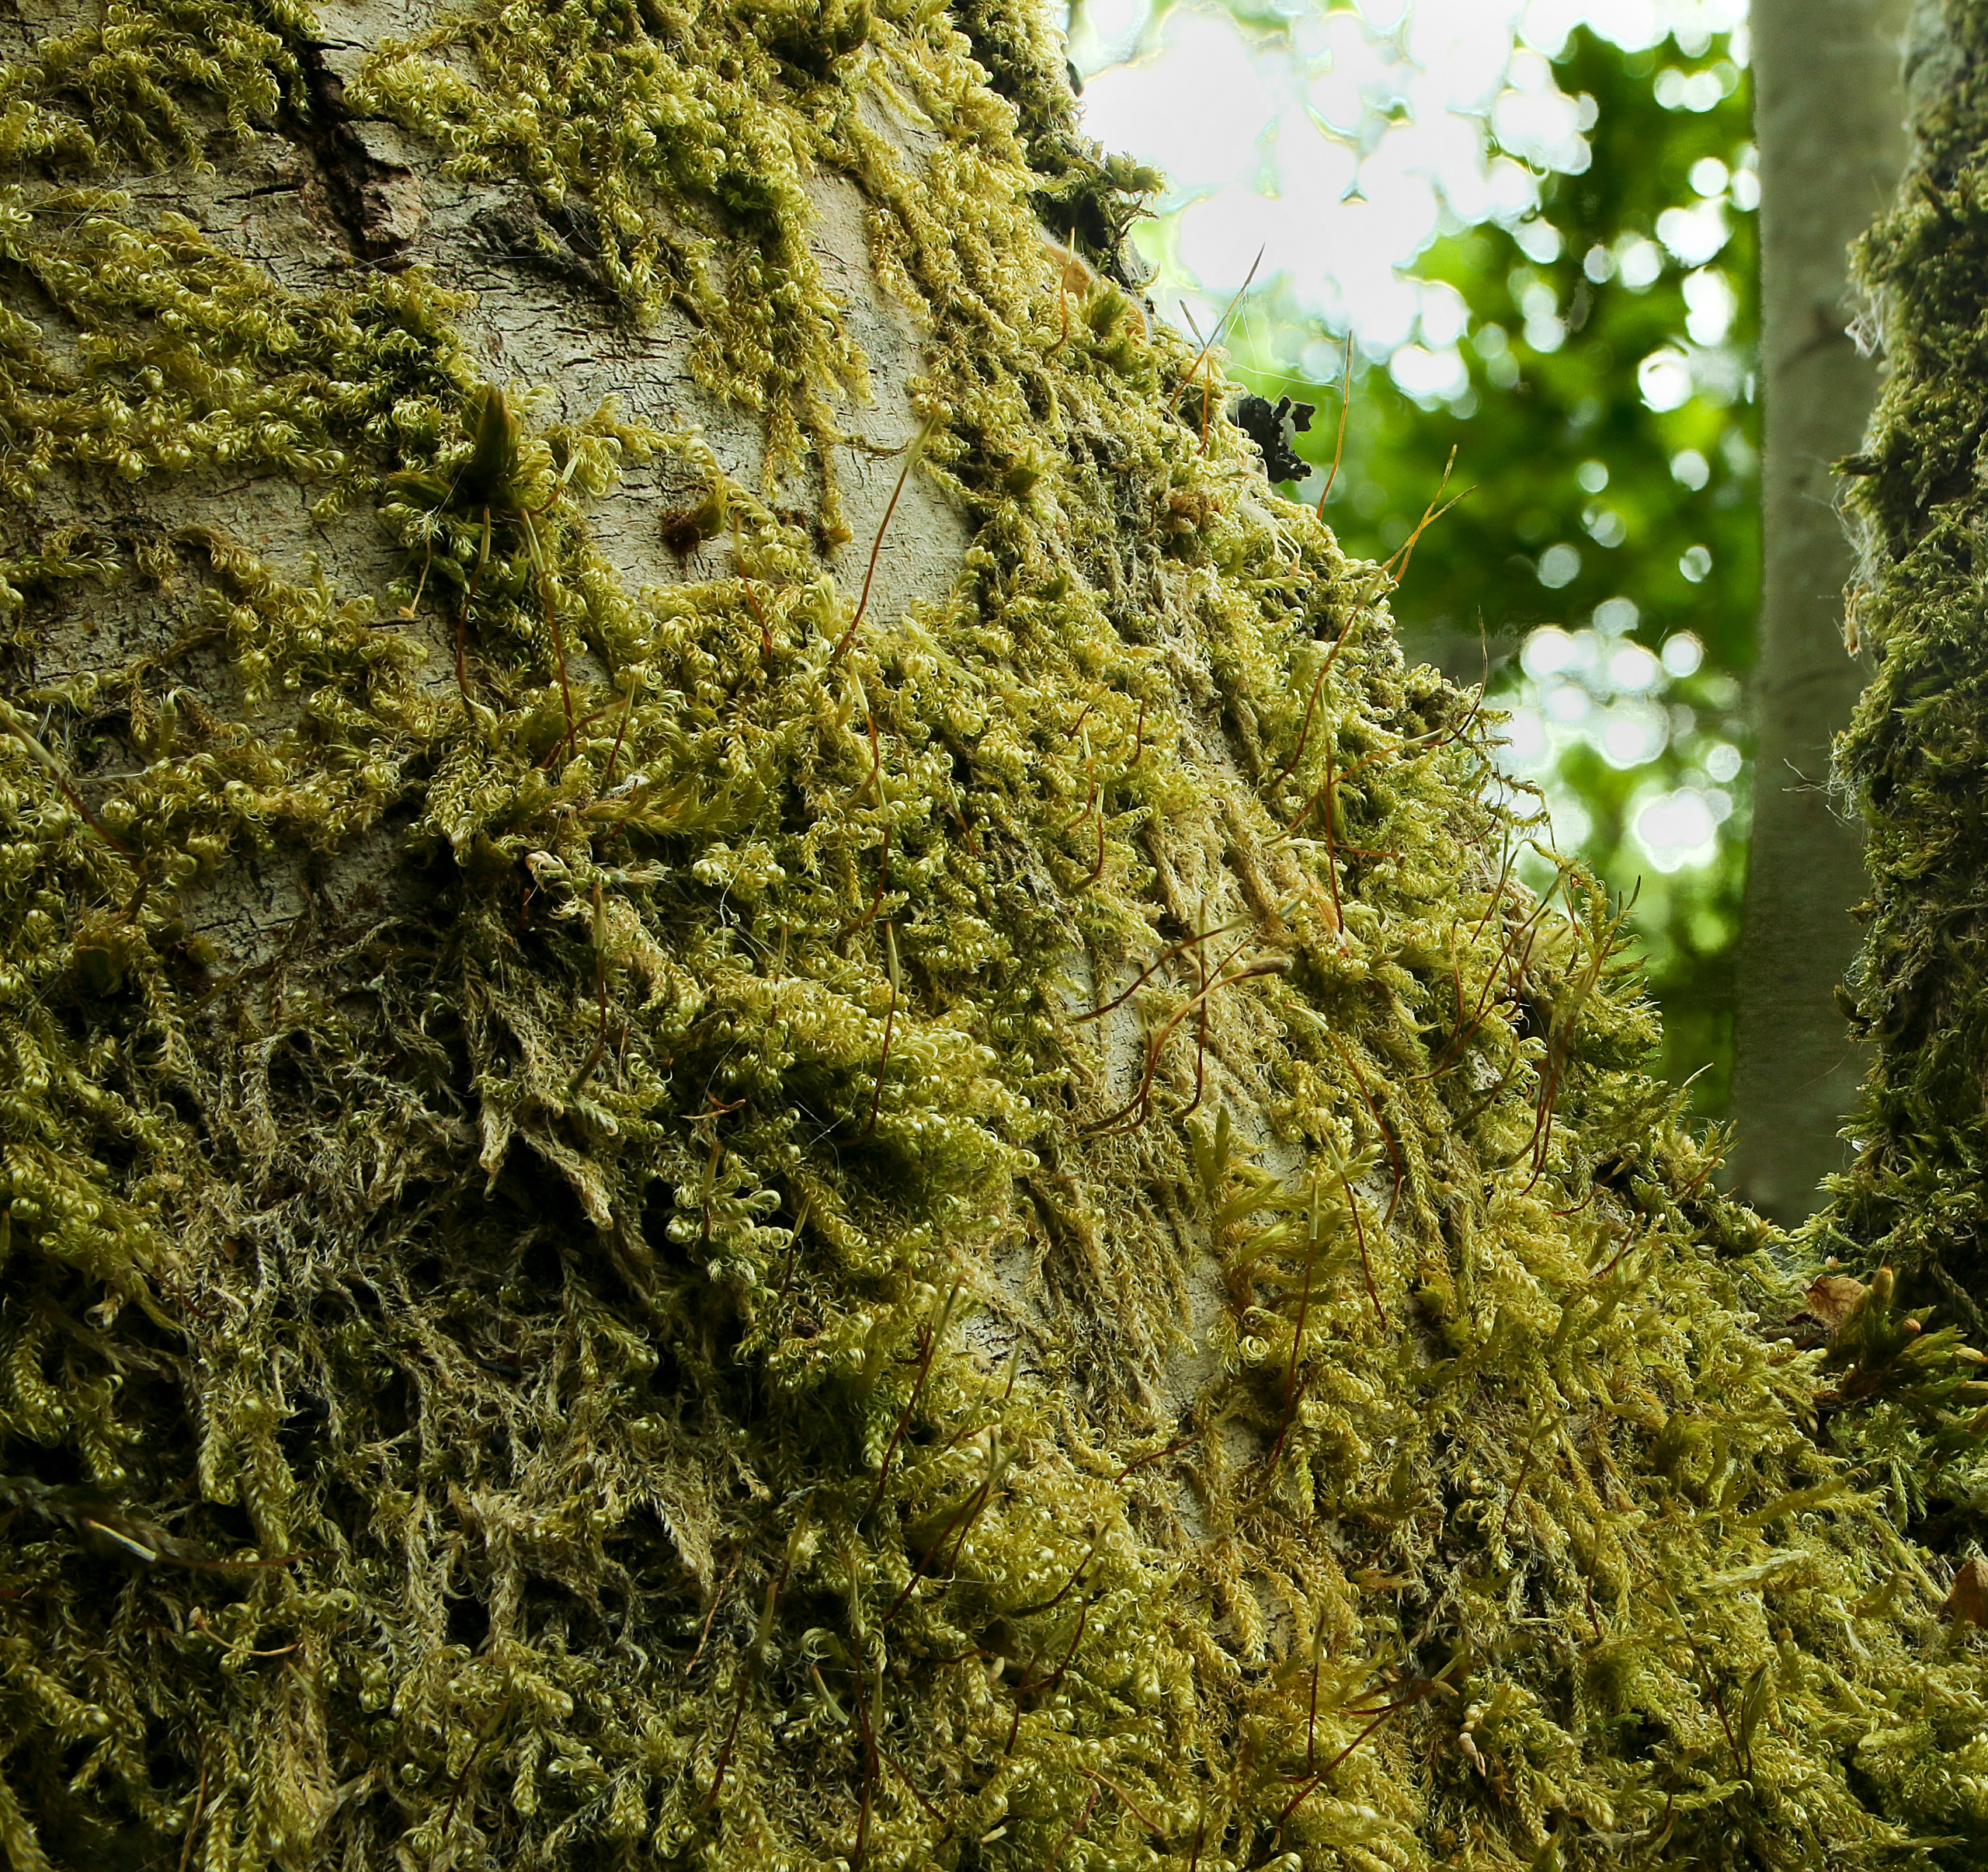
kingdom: Plantae
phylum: Bryophyta
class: Bryopsida
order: Hypnales
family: Scorpidiaceae
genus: Sanionia
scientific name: Sanionia uncinata
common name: Stribet krogblad
